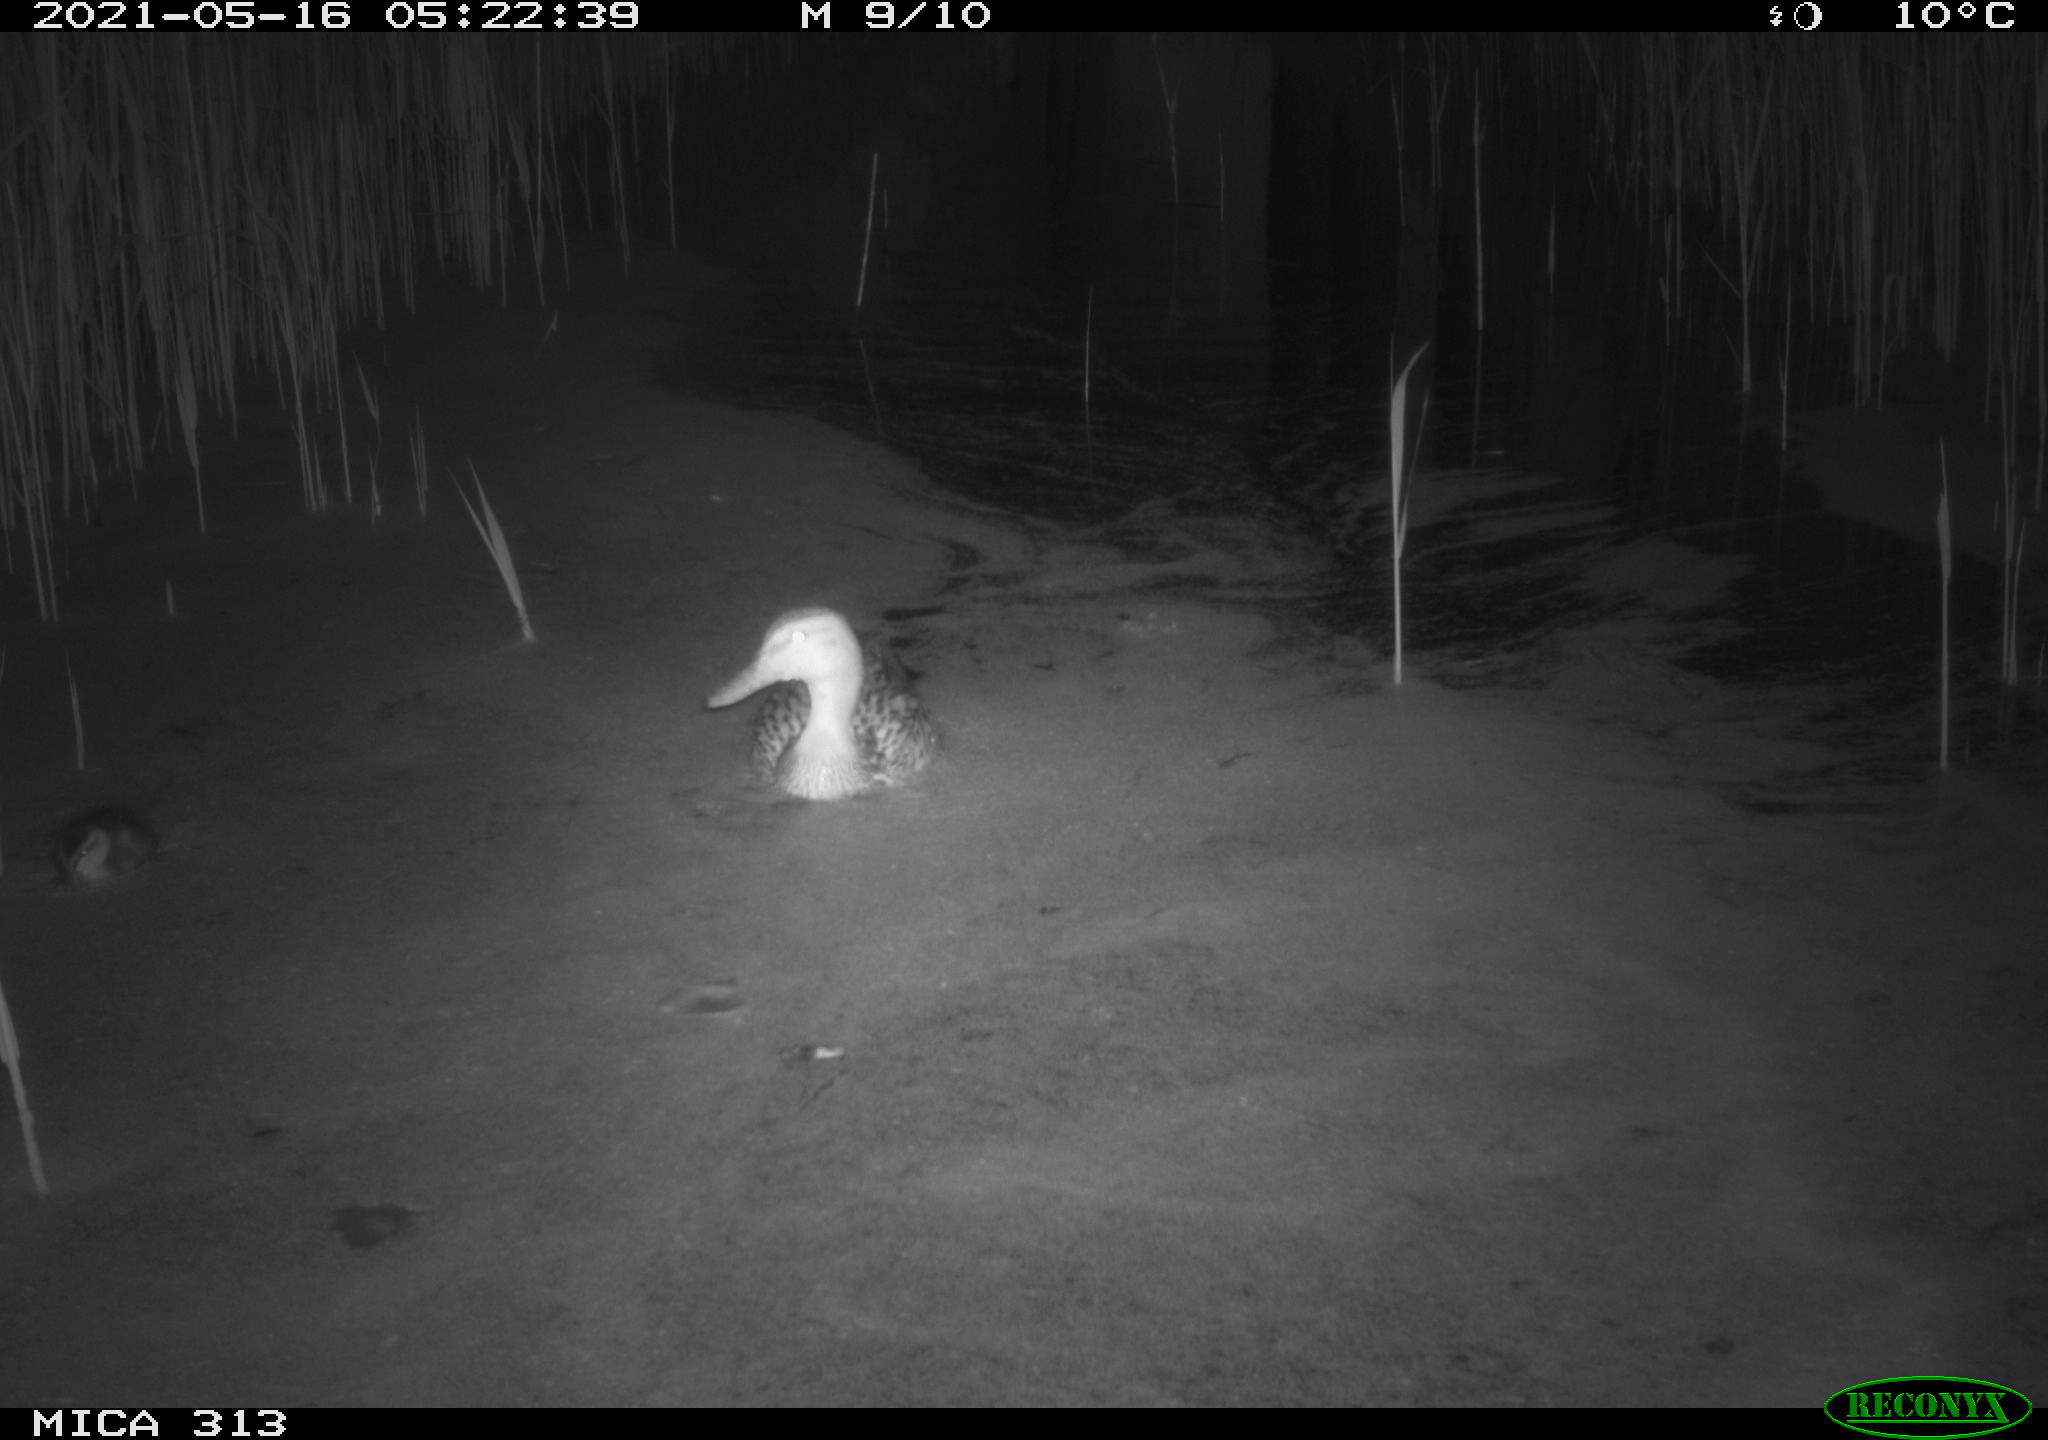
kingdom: Animalia
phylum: Chordata
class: Aves
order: Anseriformes
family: Anatidae
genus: Anas
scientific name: Anas platyrhynchos
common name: Mallard
